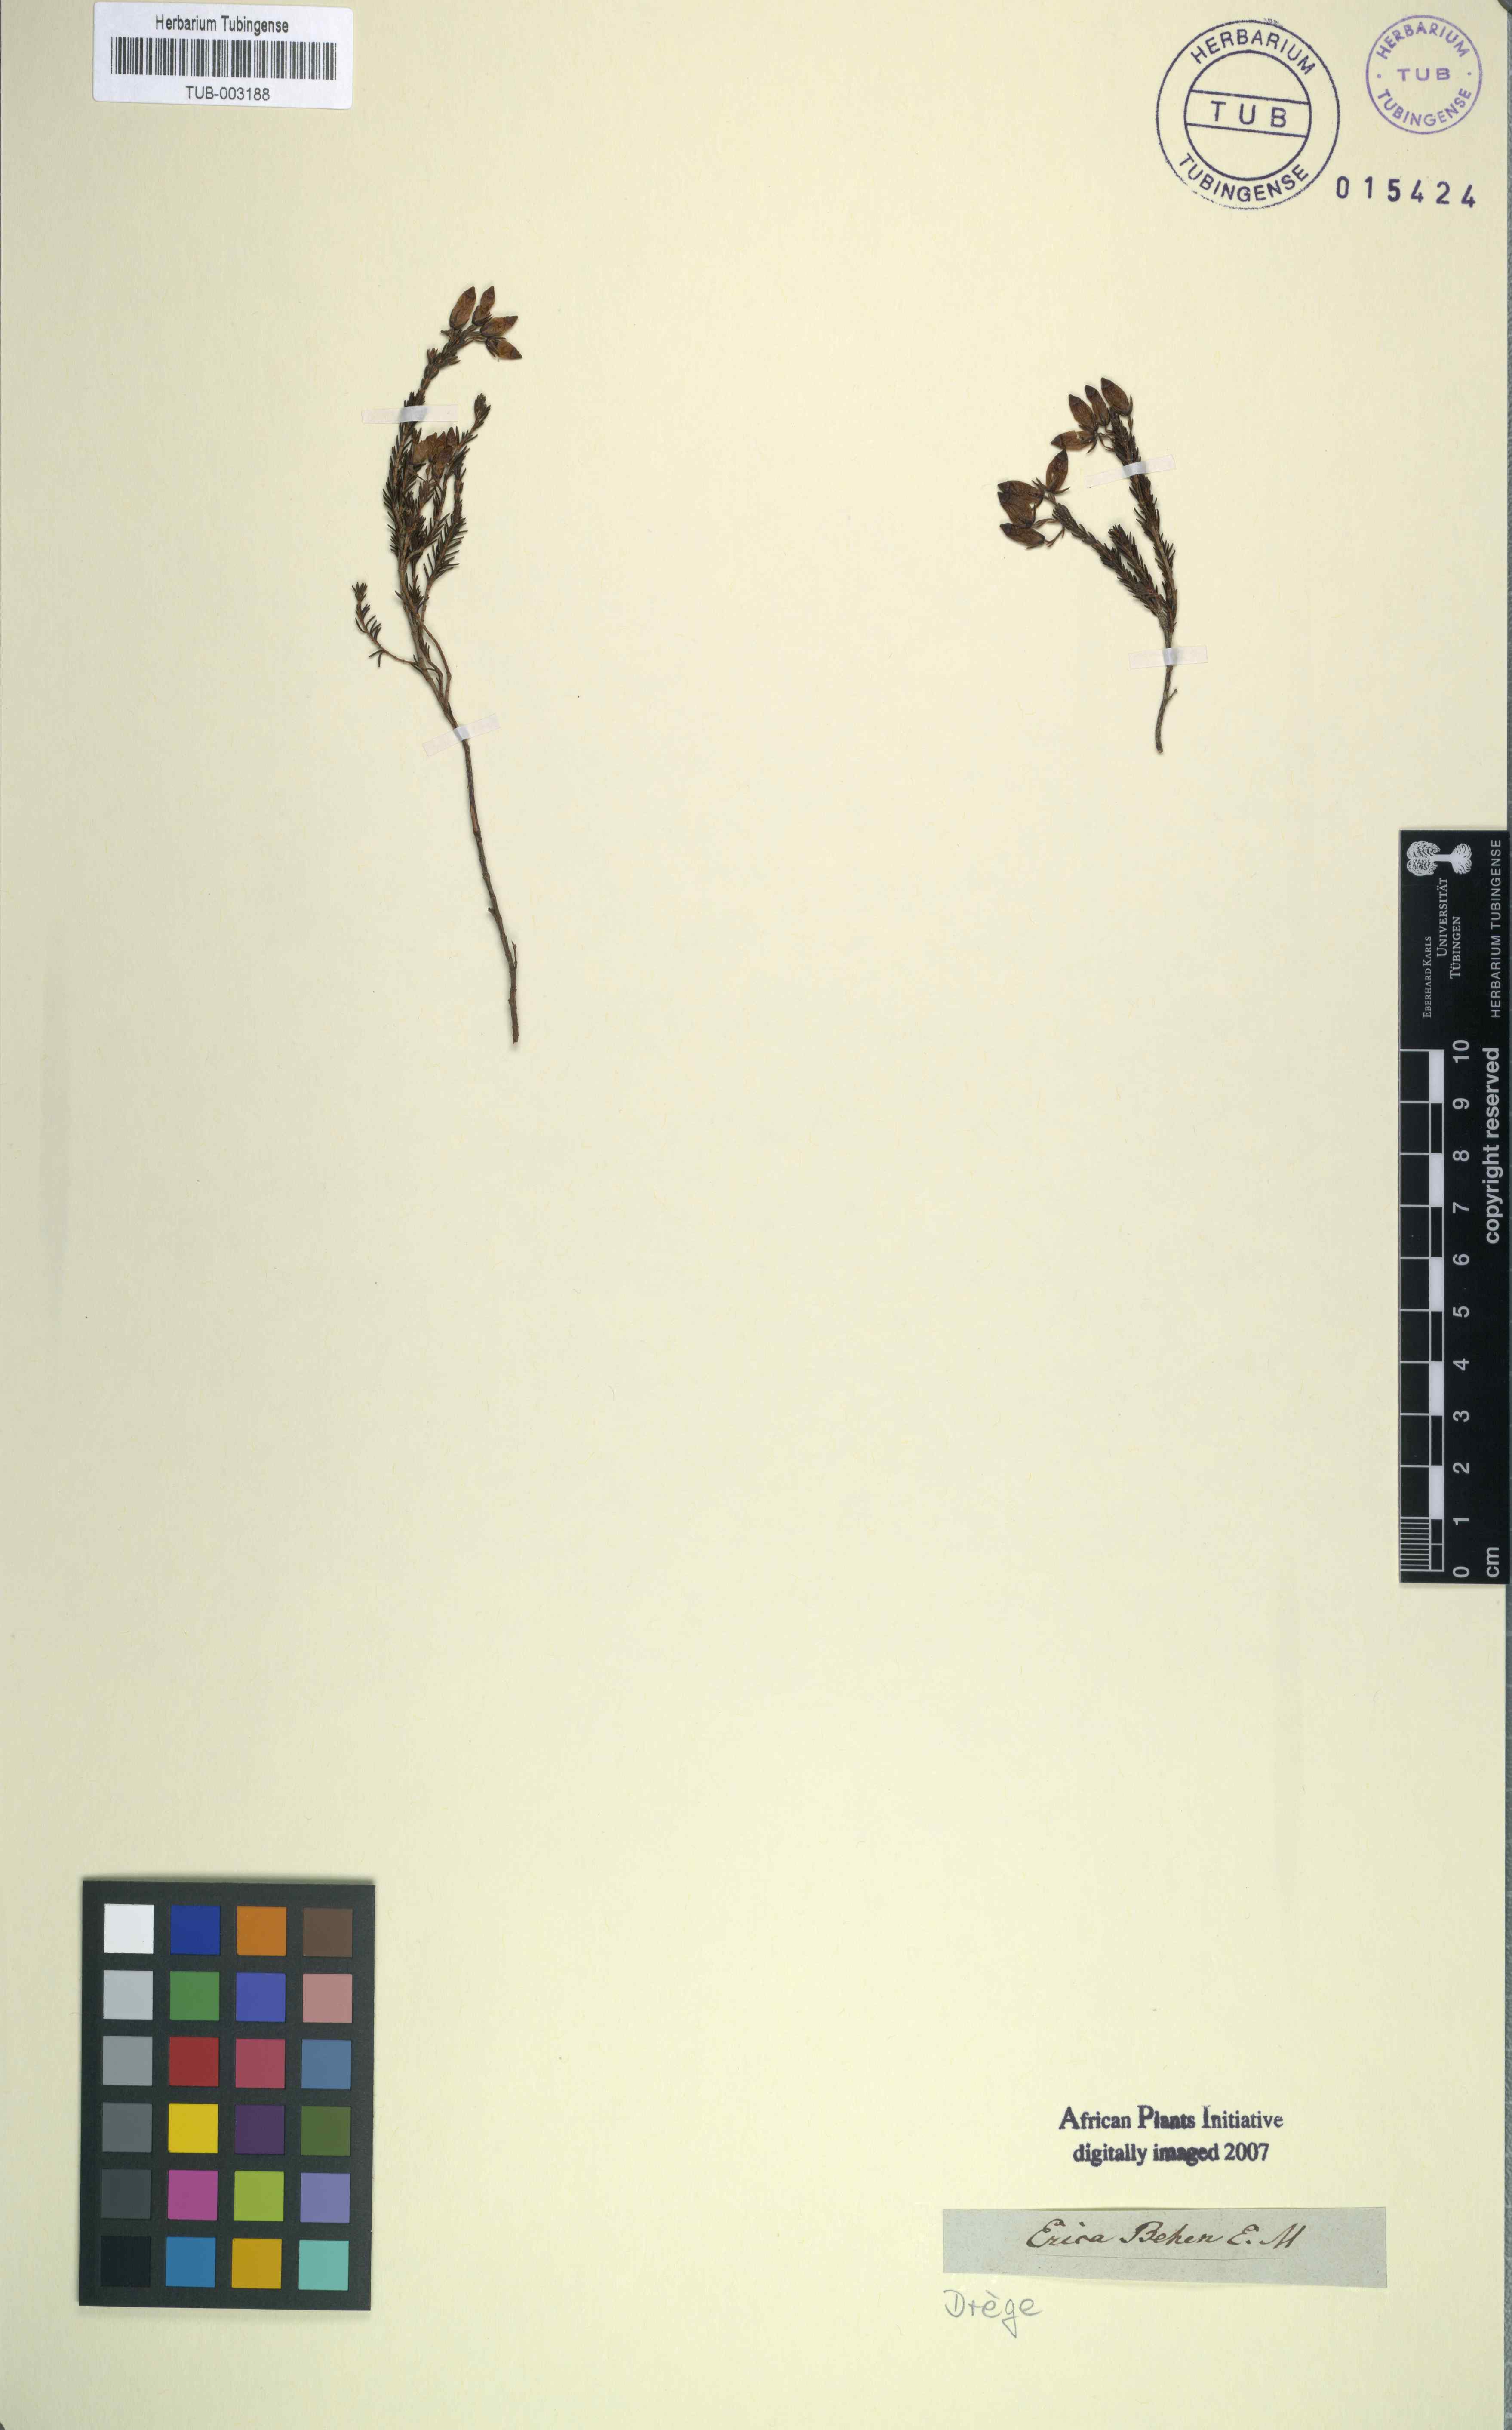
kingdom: Plantae
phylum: Tracheophyta
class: Magnoliopsida
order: Ericales
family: Ericaceae
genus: Erica
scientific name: Erica ventricosa
